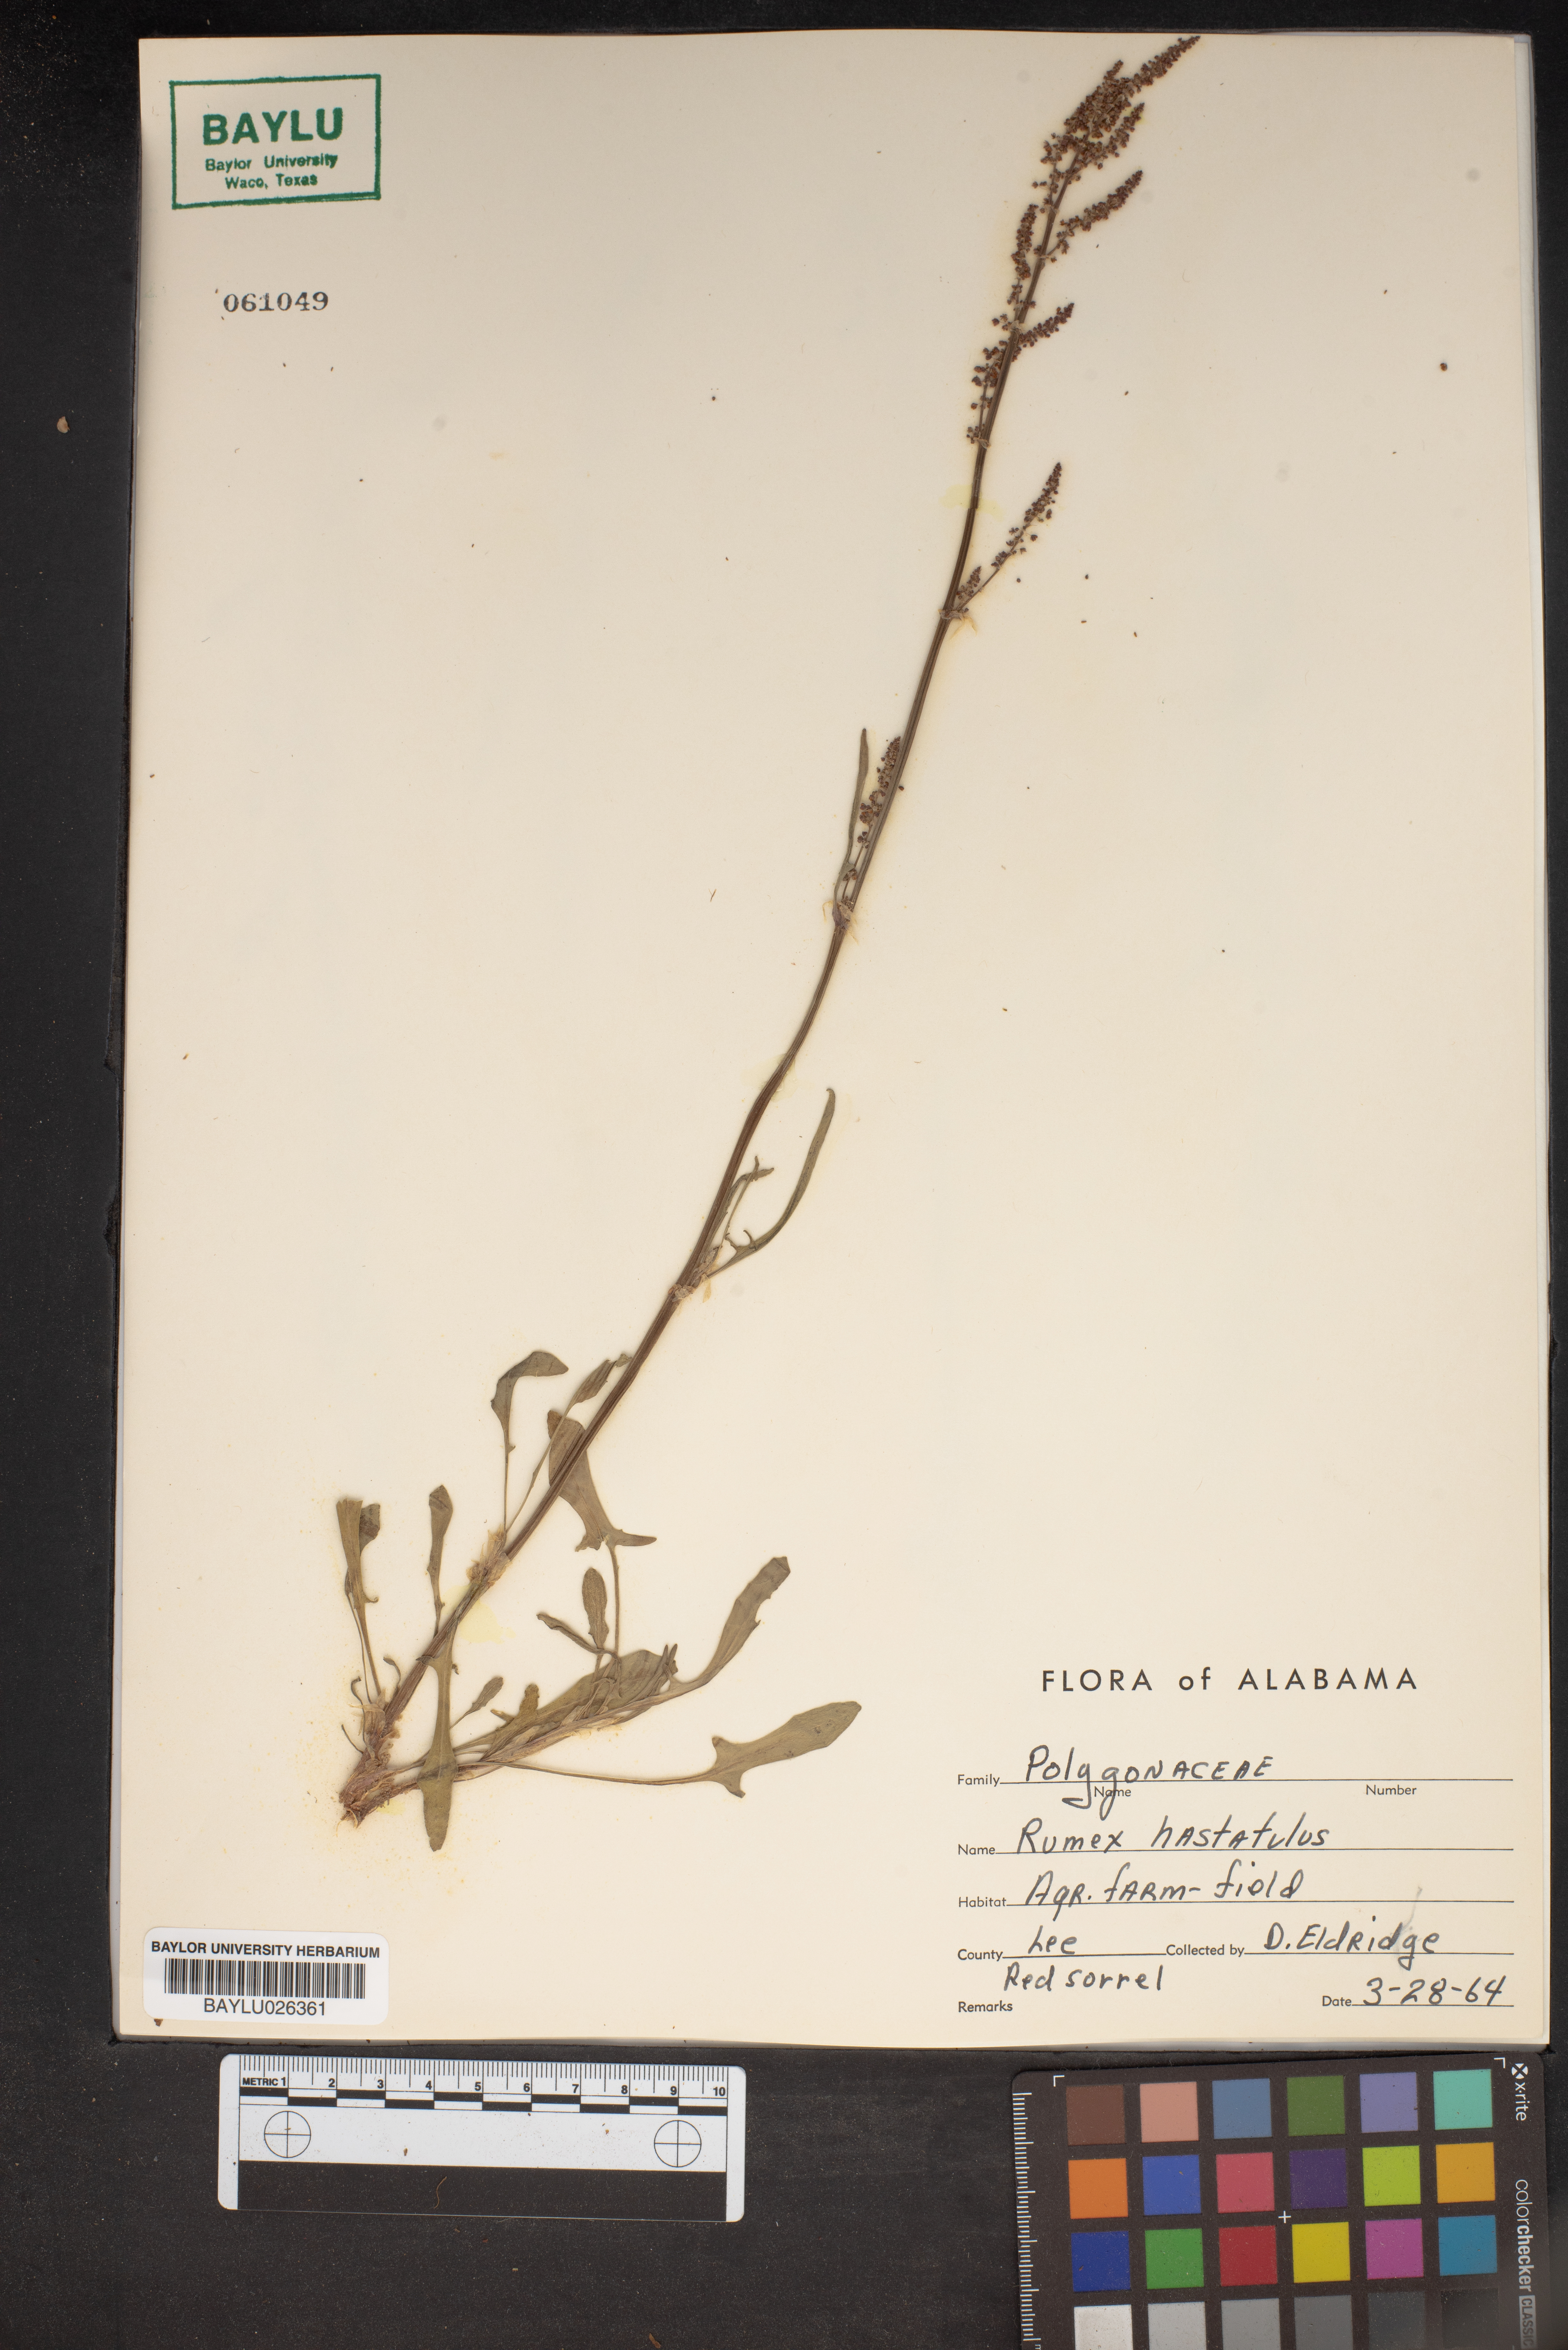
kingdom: Plantae
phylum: Tracheophyta
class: Magnoliopsida
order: Caryophyllales
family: Polygonaceae
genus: Rumex
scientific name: Rumex hastatulus
